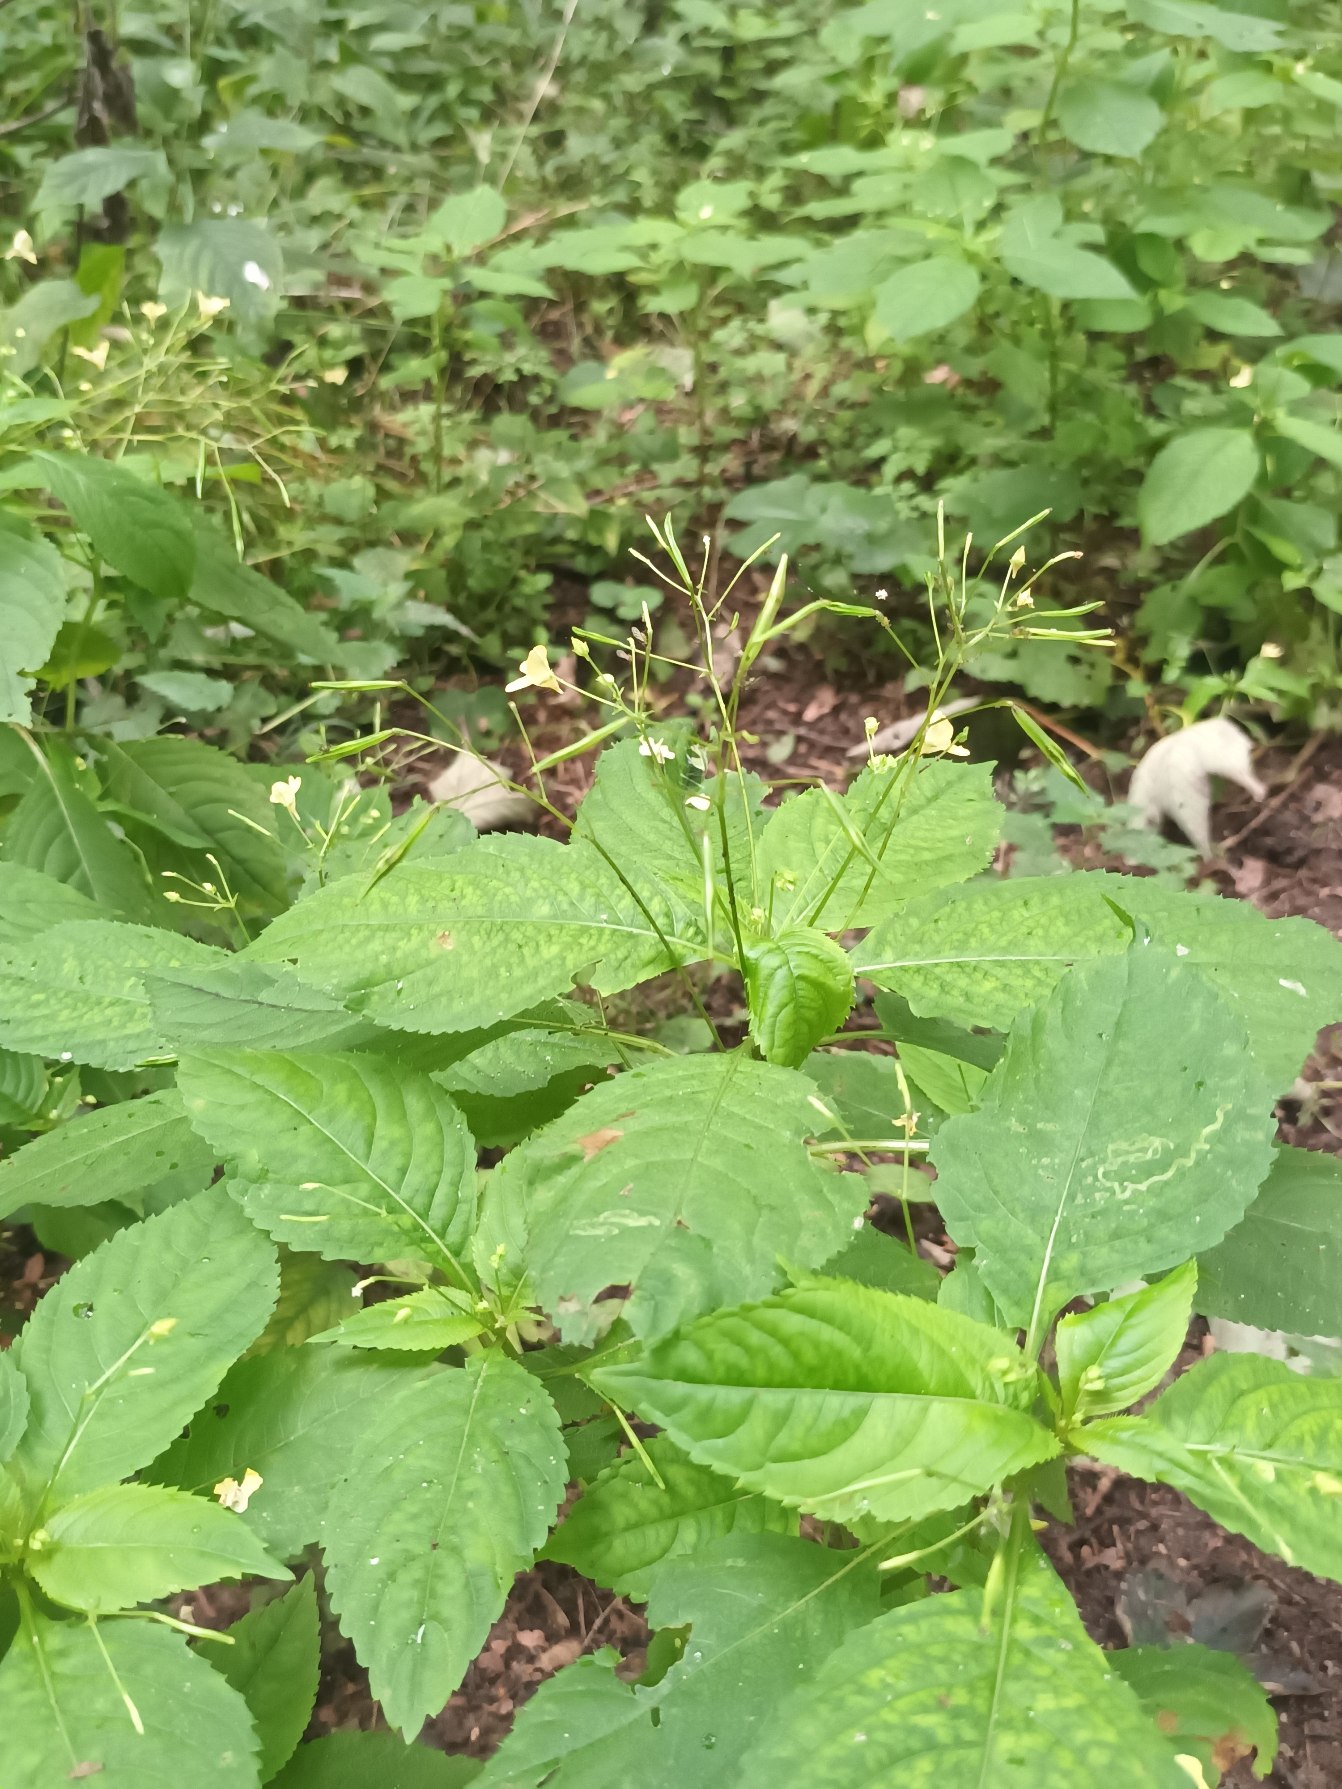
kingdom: Plantae
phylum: Tracheophyta
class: Magnoliopsida
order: Ericales
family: Balsaminaceae
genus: Impatiens
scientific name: Impatiens parviflora
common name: Småblomstret balsamin
